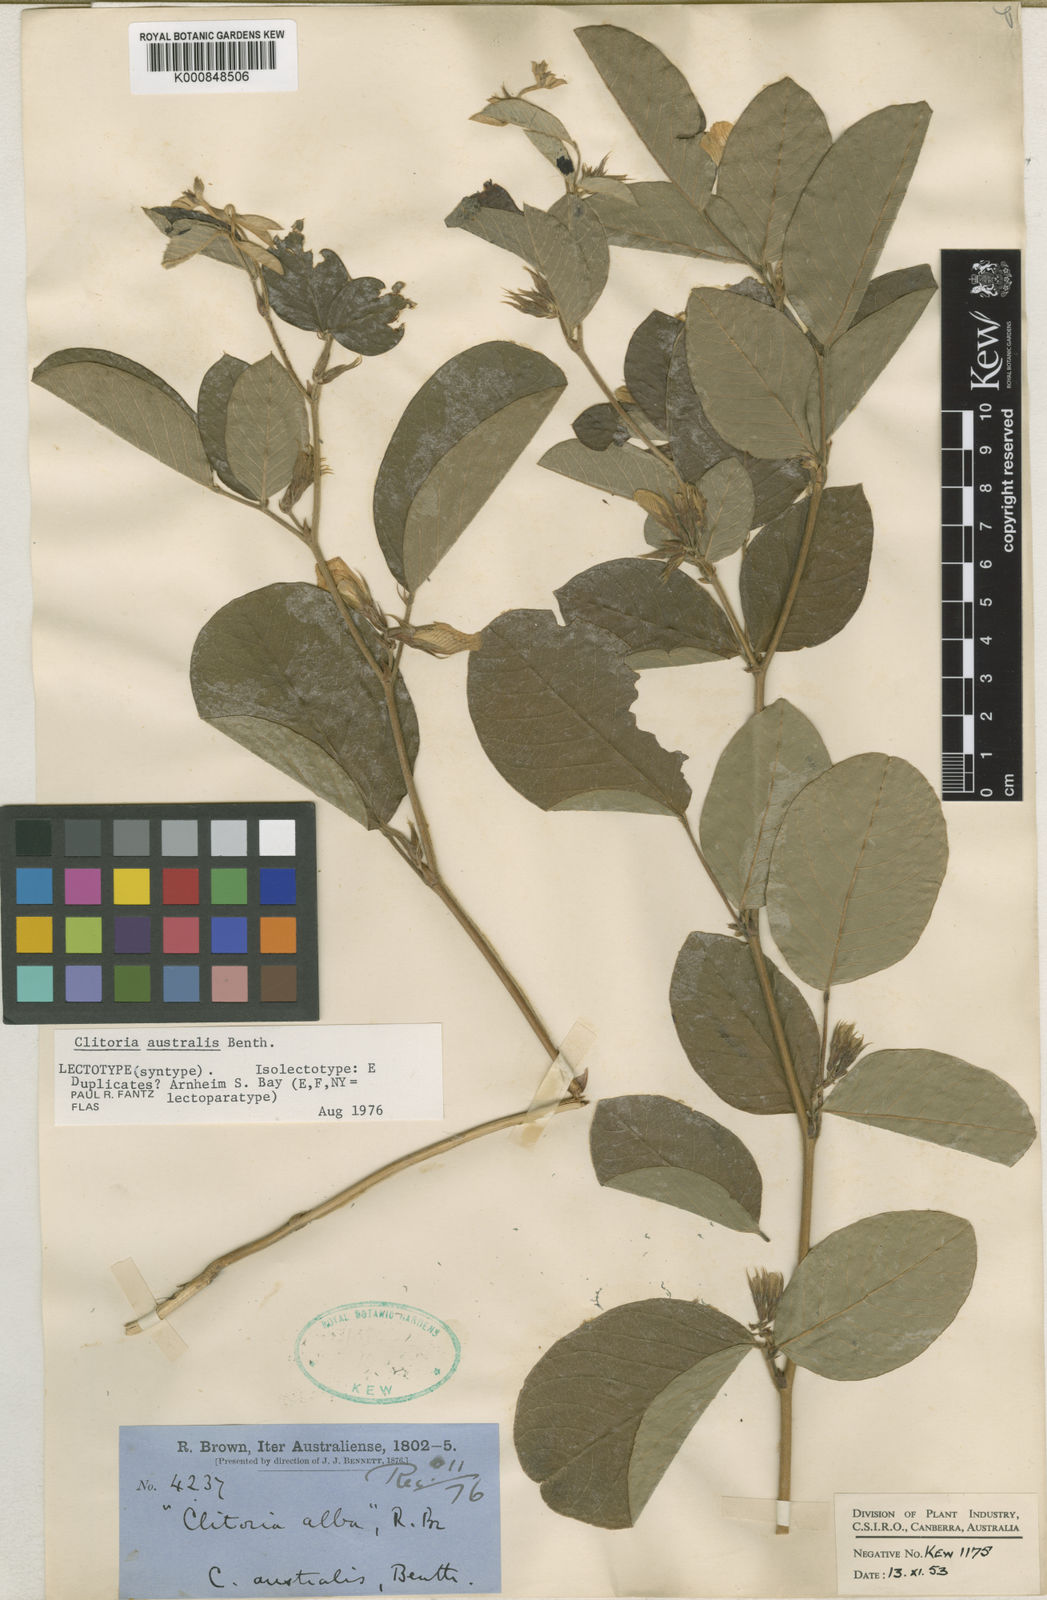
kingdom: Plantae
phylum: Tracheophyta
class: Magnoliopsida
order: Fabales
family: Fabaceae
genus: Clitoria
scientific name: Clitoria australis
